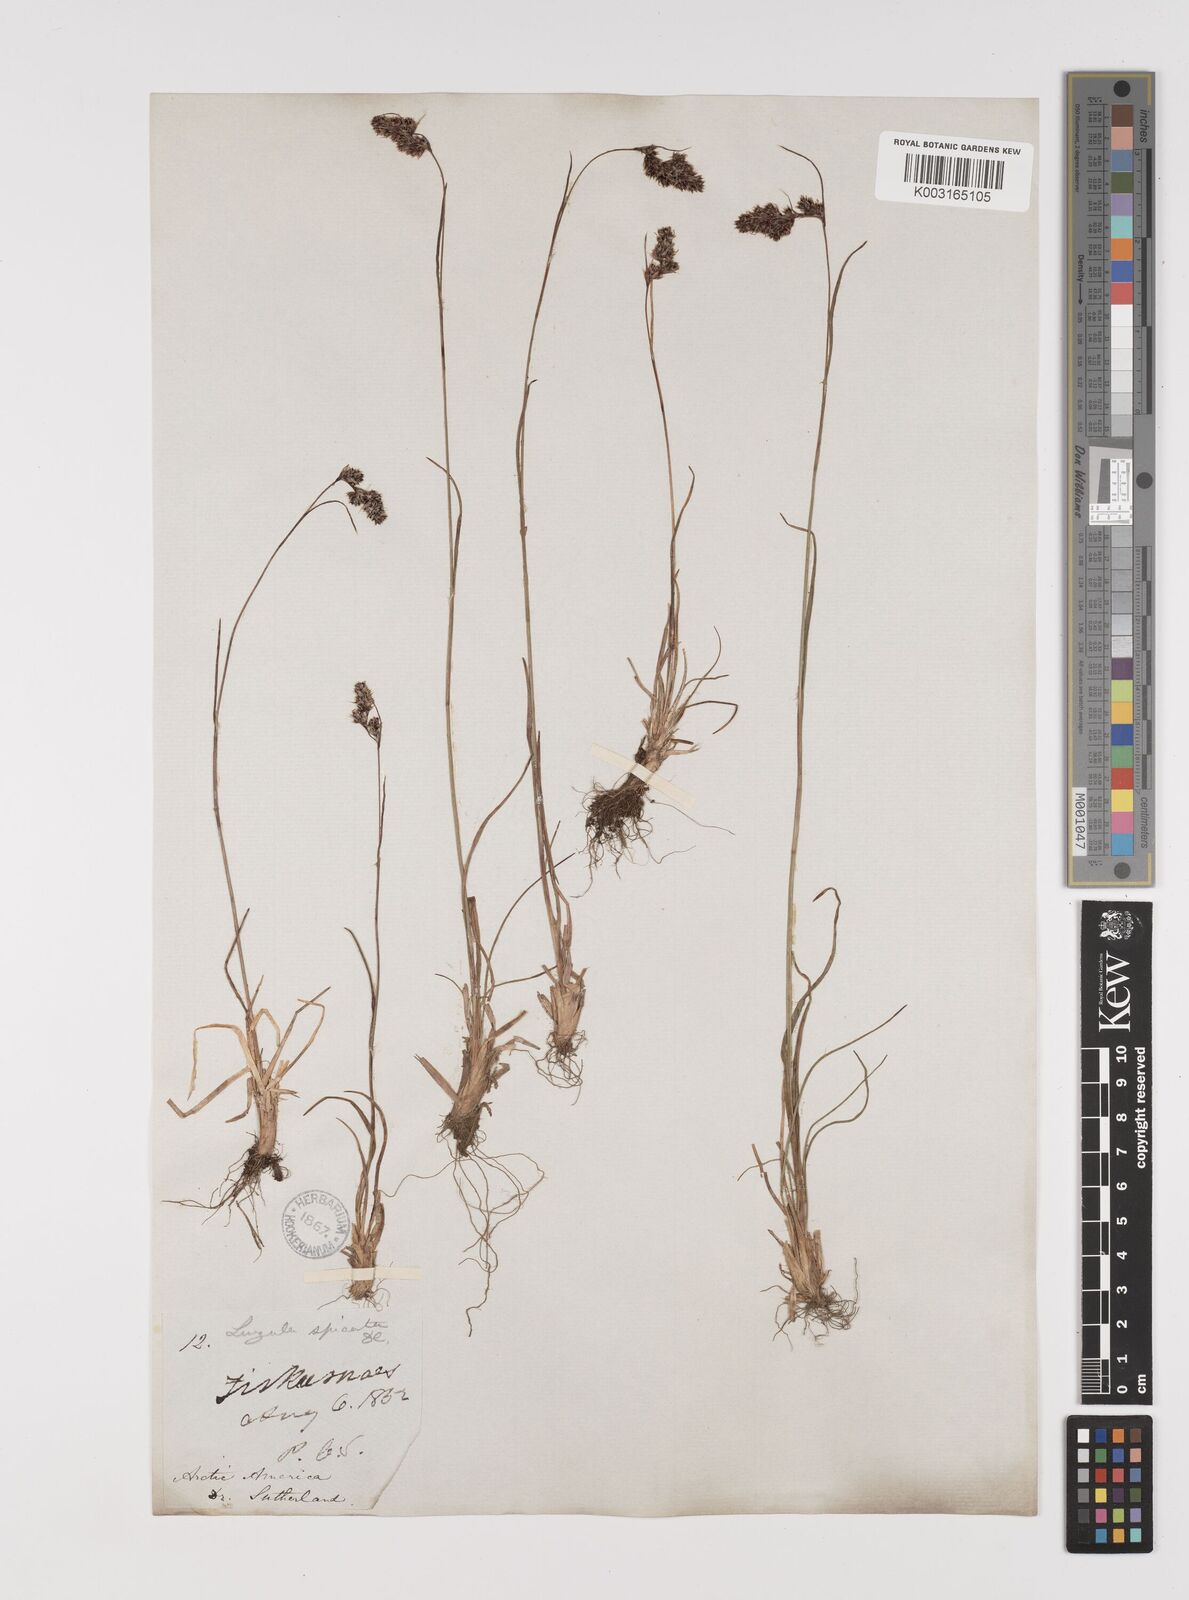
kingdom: Plantae
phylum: Tracheophyta
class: Liliopsida
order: Poales
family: Juncaceae
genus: Luzula
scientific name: Luzula spicata
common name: Spiked wood-rush
